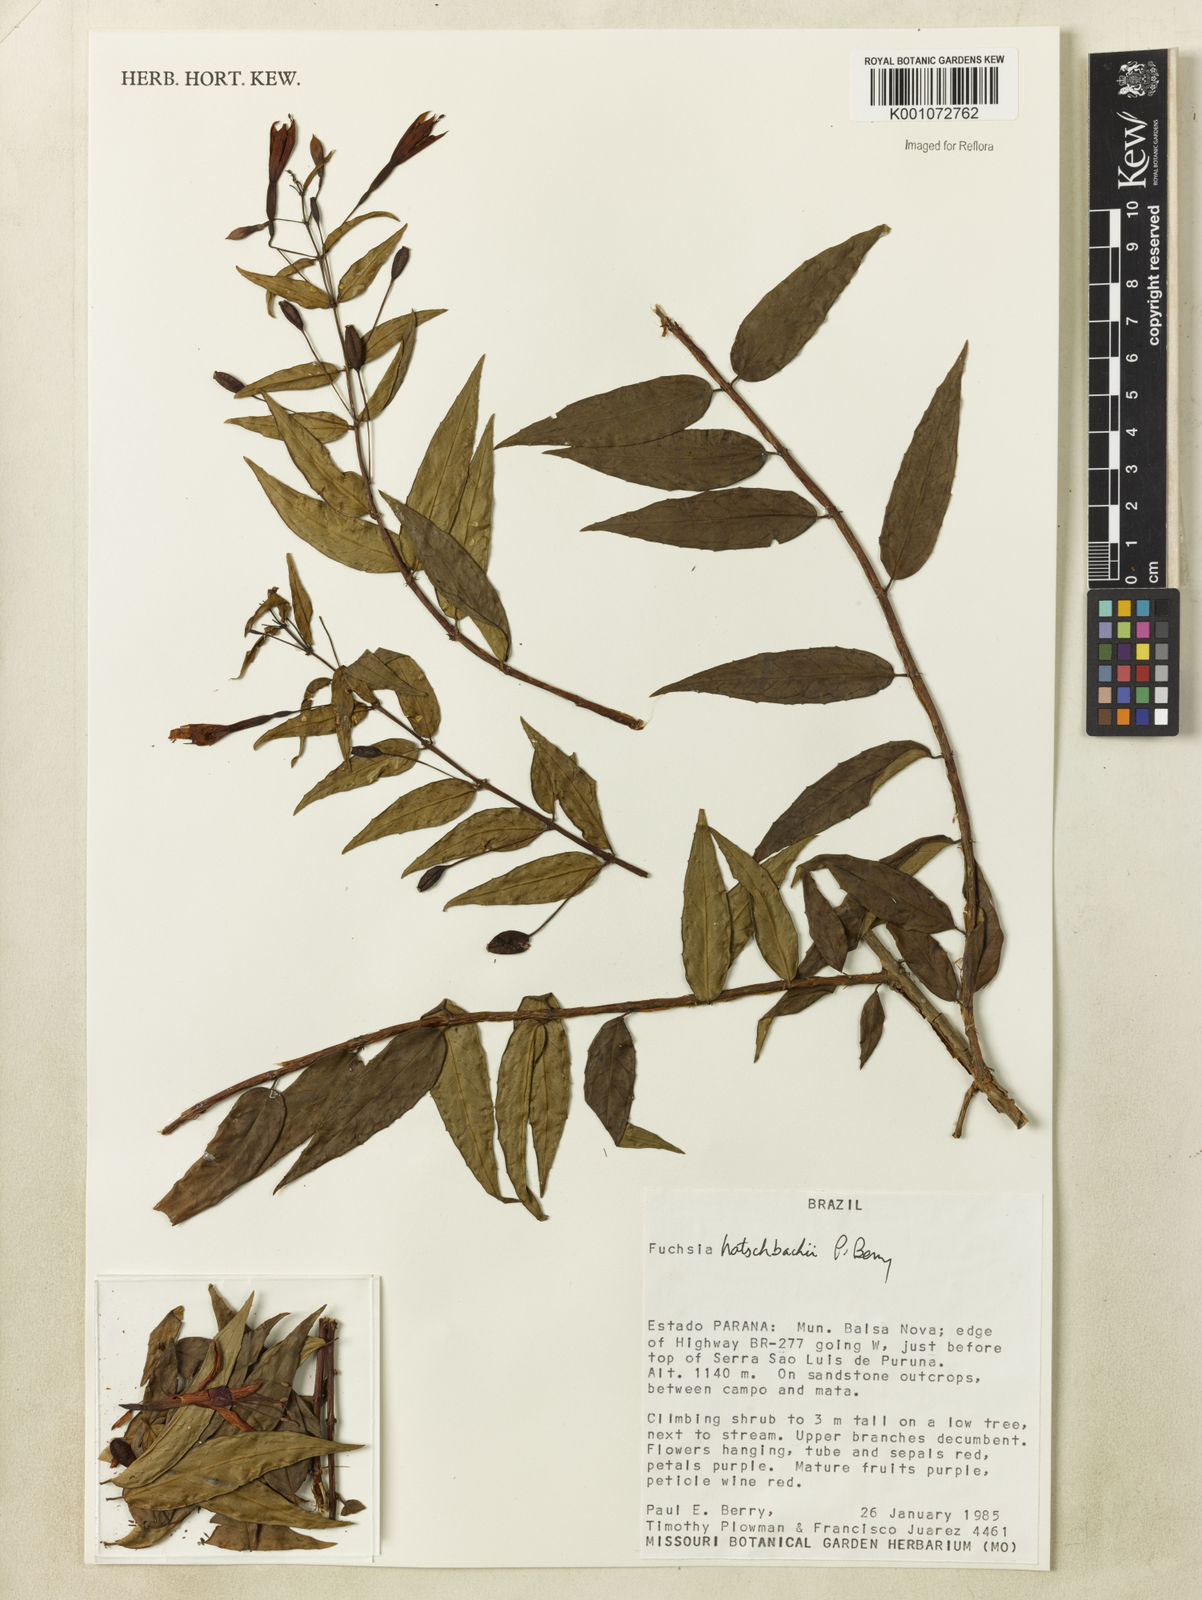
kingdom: Plantae
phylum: Tracheophyta
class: Magnoliopsida
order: Myrtales
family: Onagraceae
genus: Fuchsia
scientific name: Fuchsia hatschbachii
